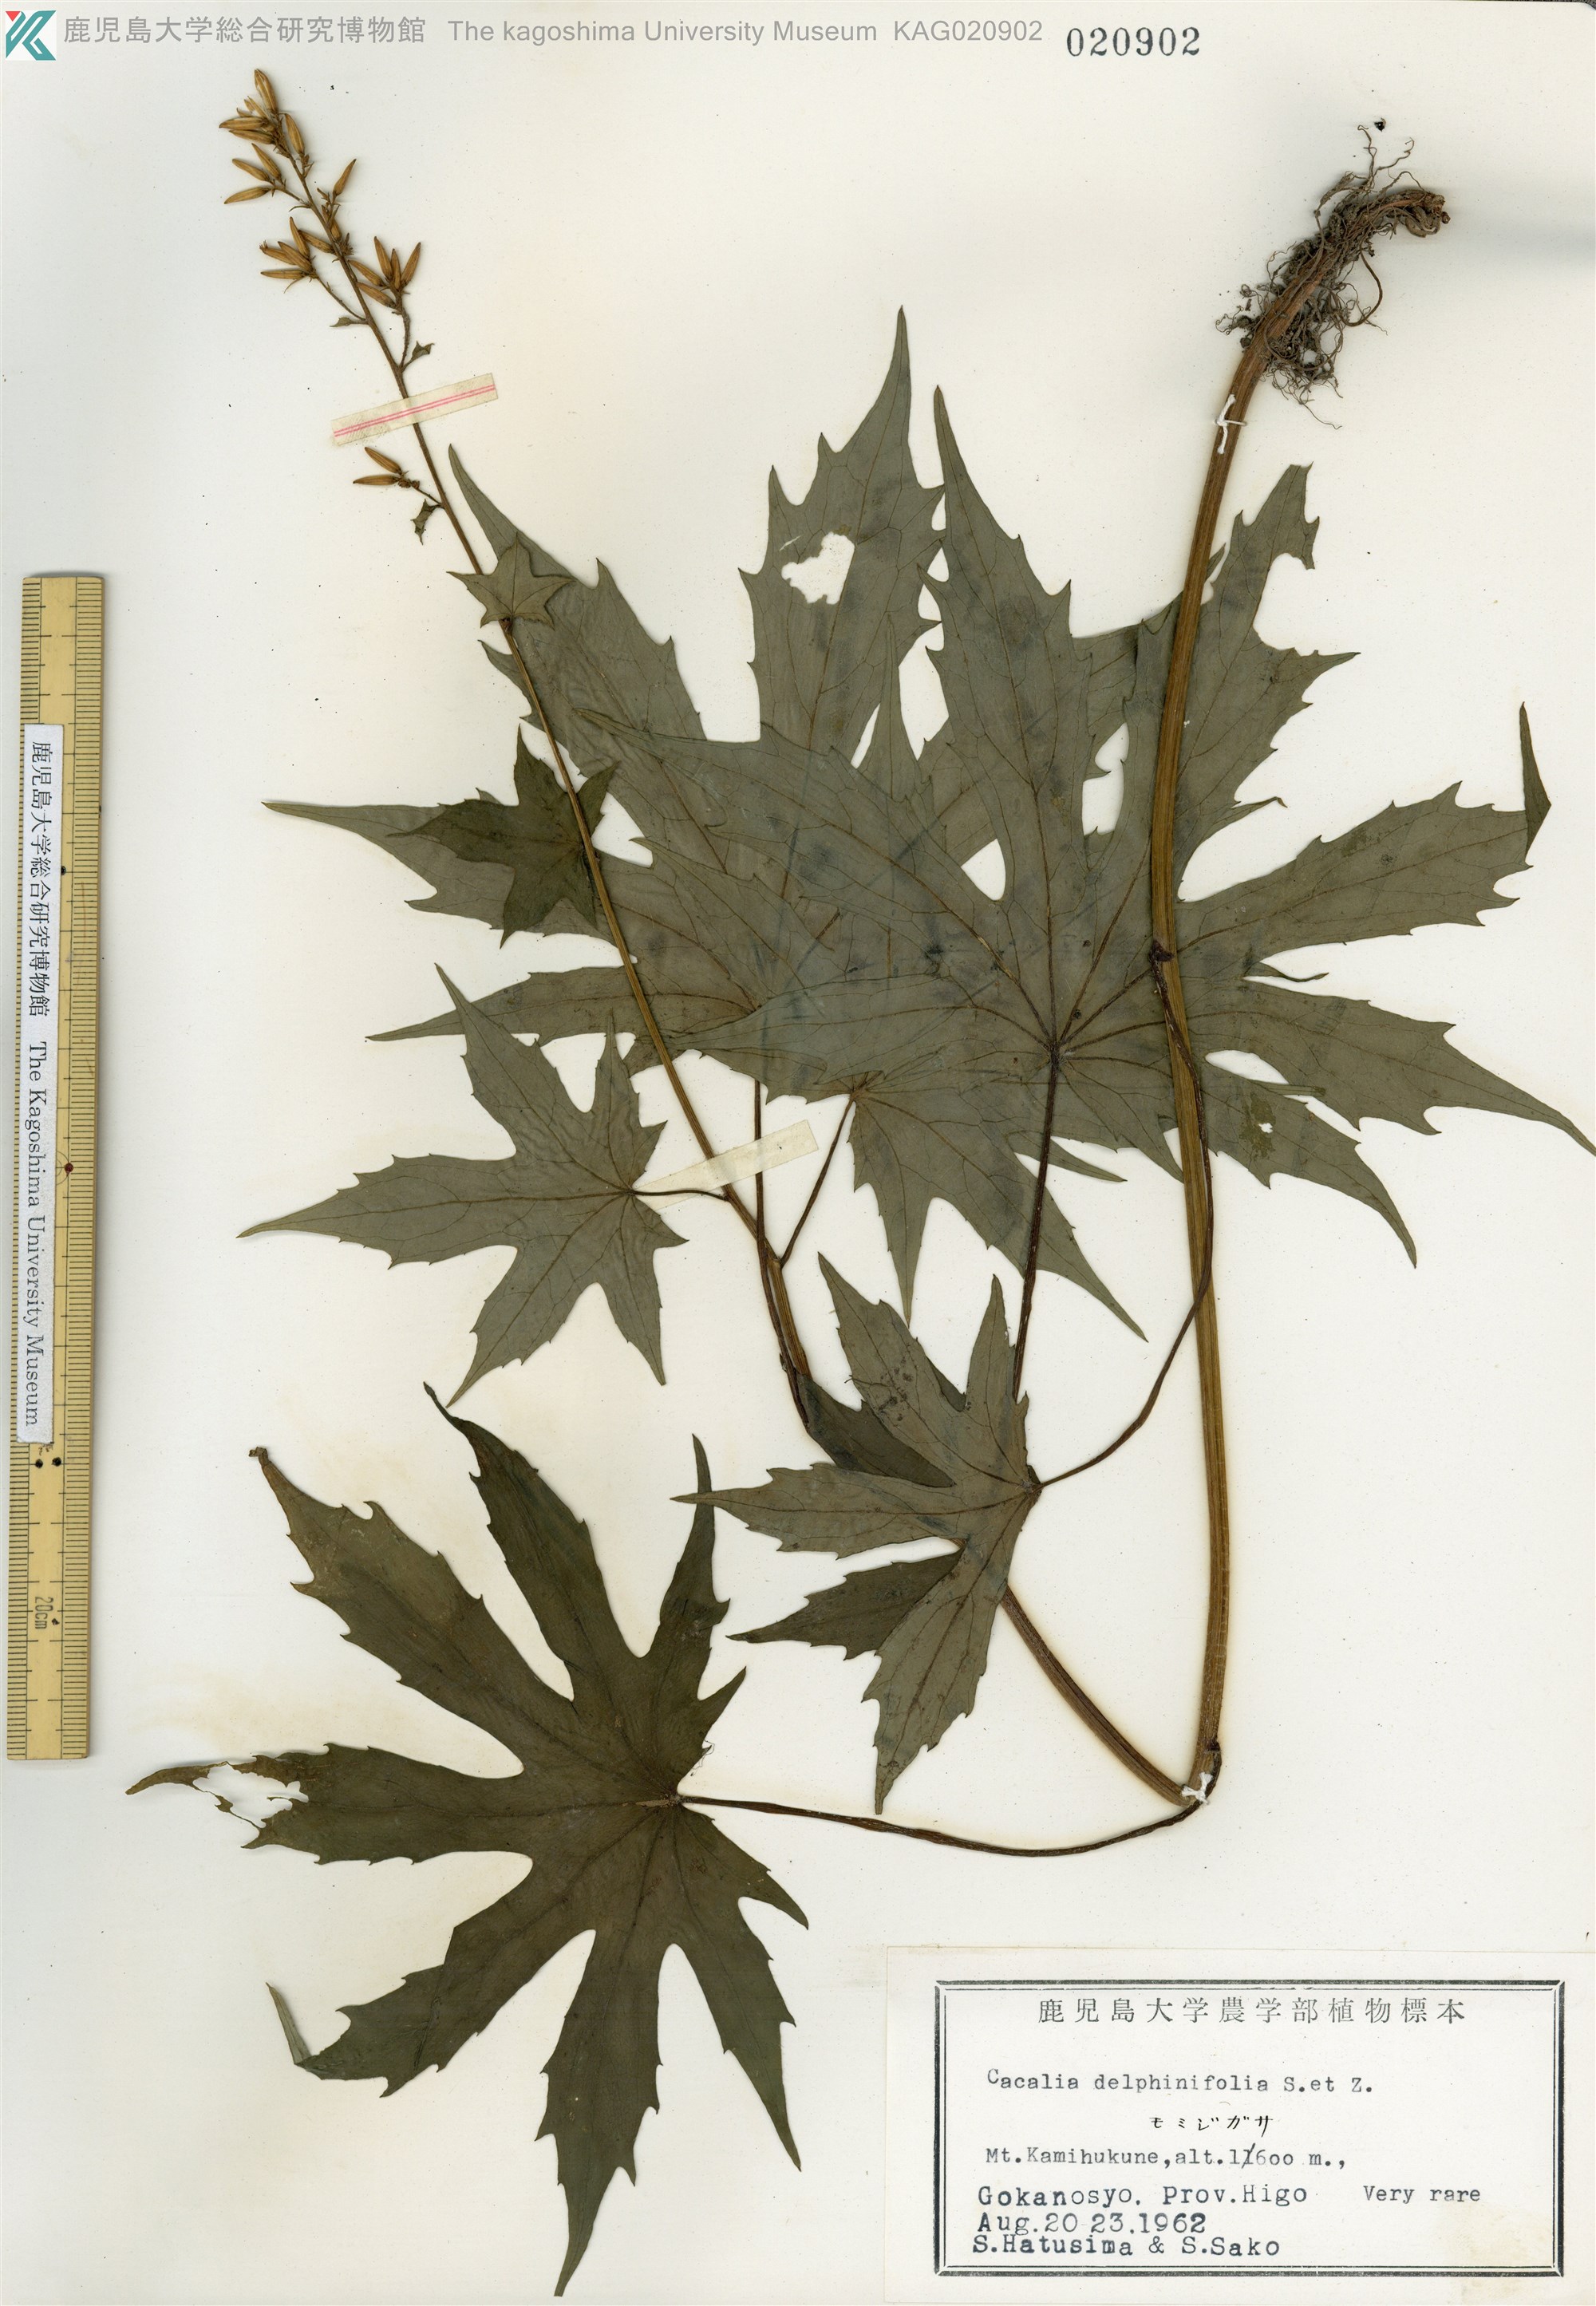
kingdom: Plantae
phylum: Tracheophyta
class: Magnoliopsida
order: Asterales
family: Asteraceae
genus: Japonicalia
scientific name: Japonicalia delphiniifolia
